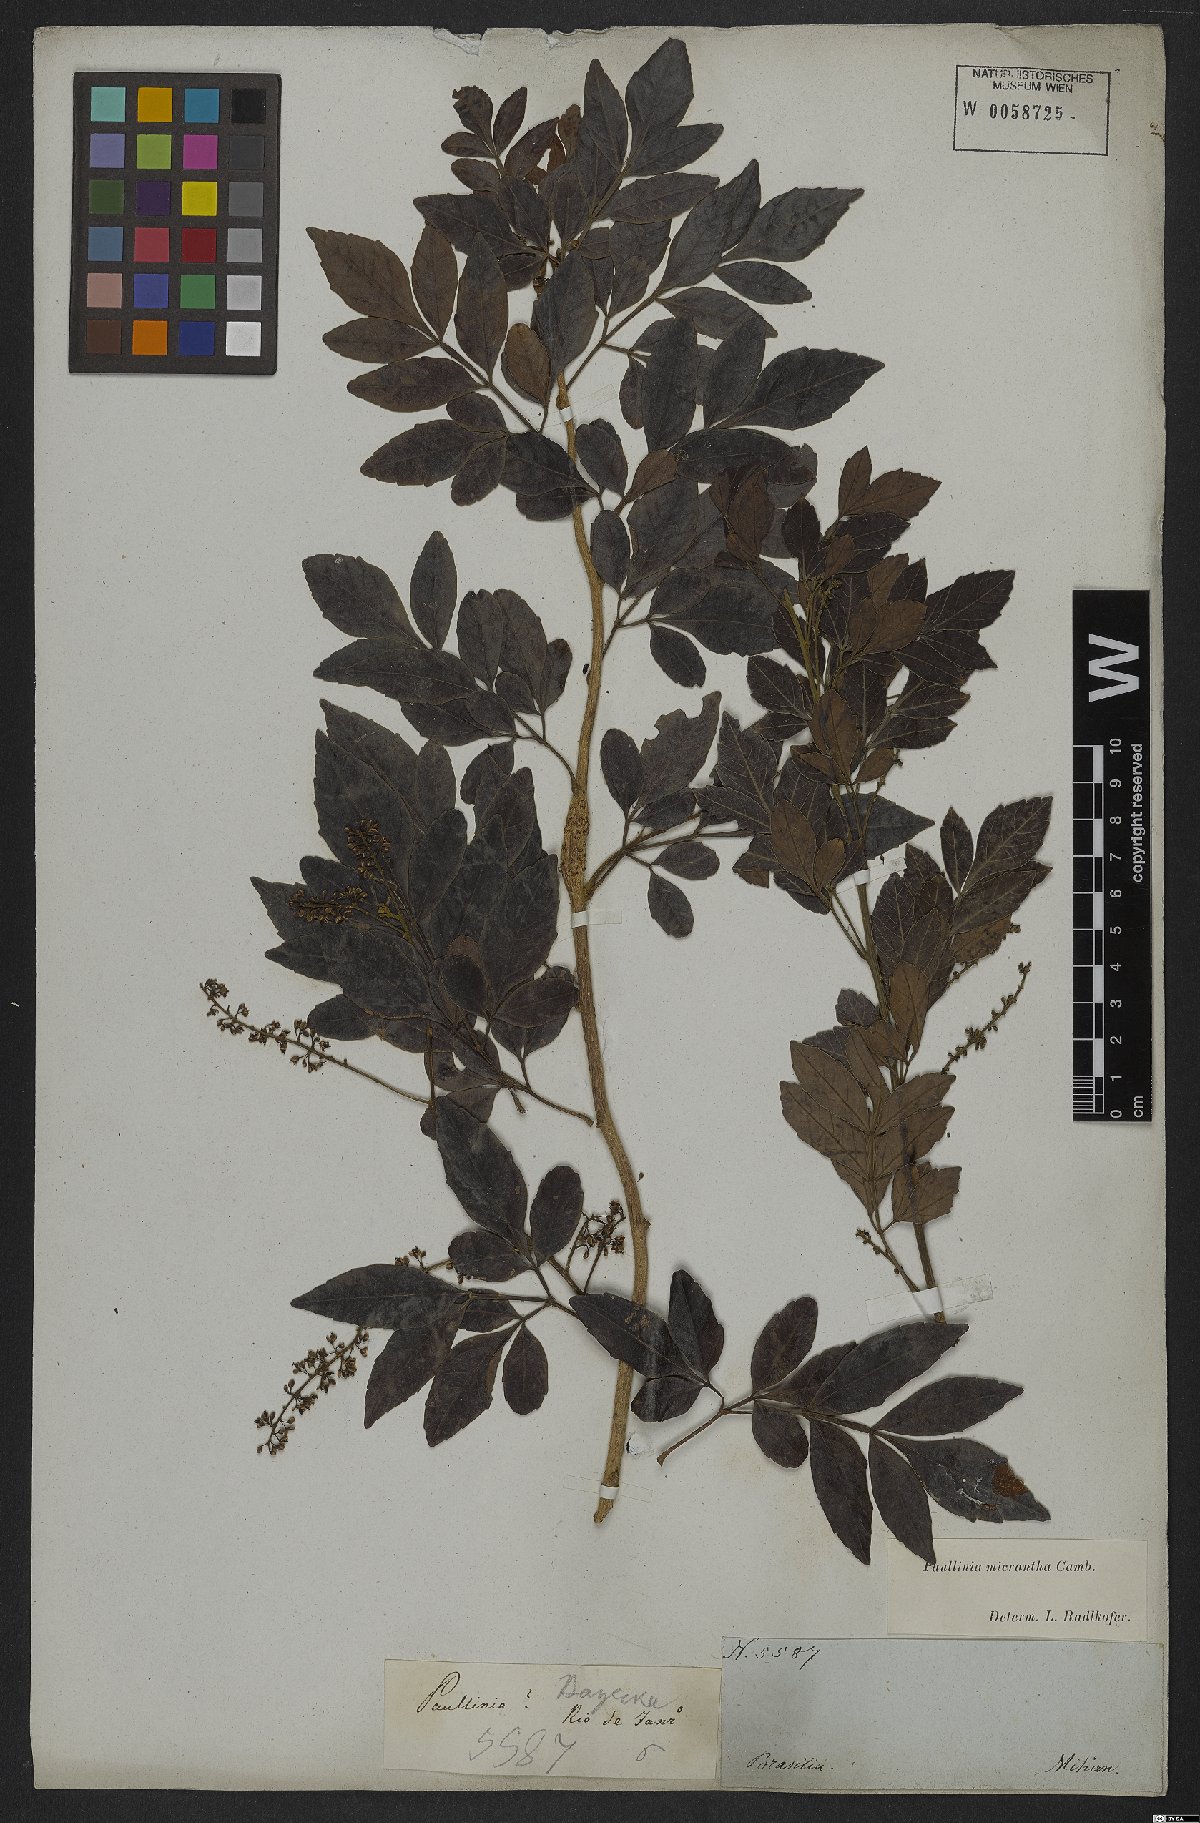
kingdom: Plantae
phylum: Tracheophyta
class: Magnoliopsida
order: Sapindales
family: Sapindaceae
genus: Paullinia
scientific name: Paullinia micrantha
